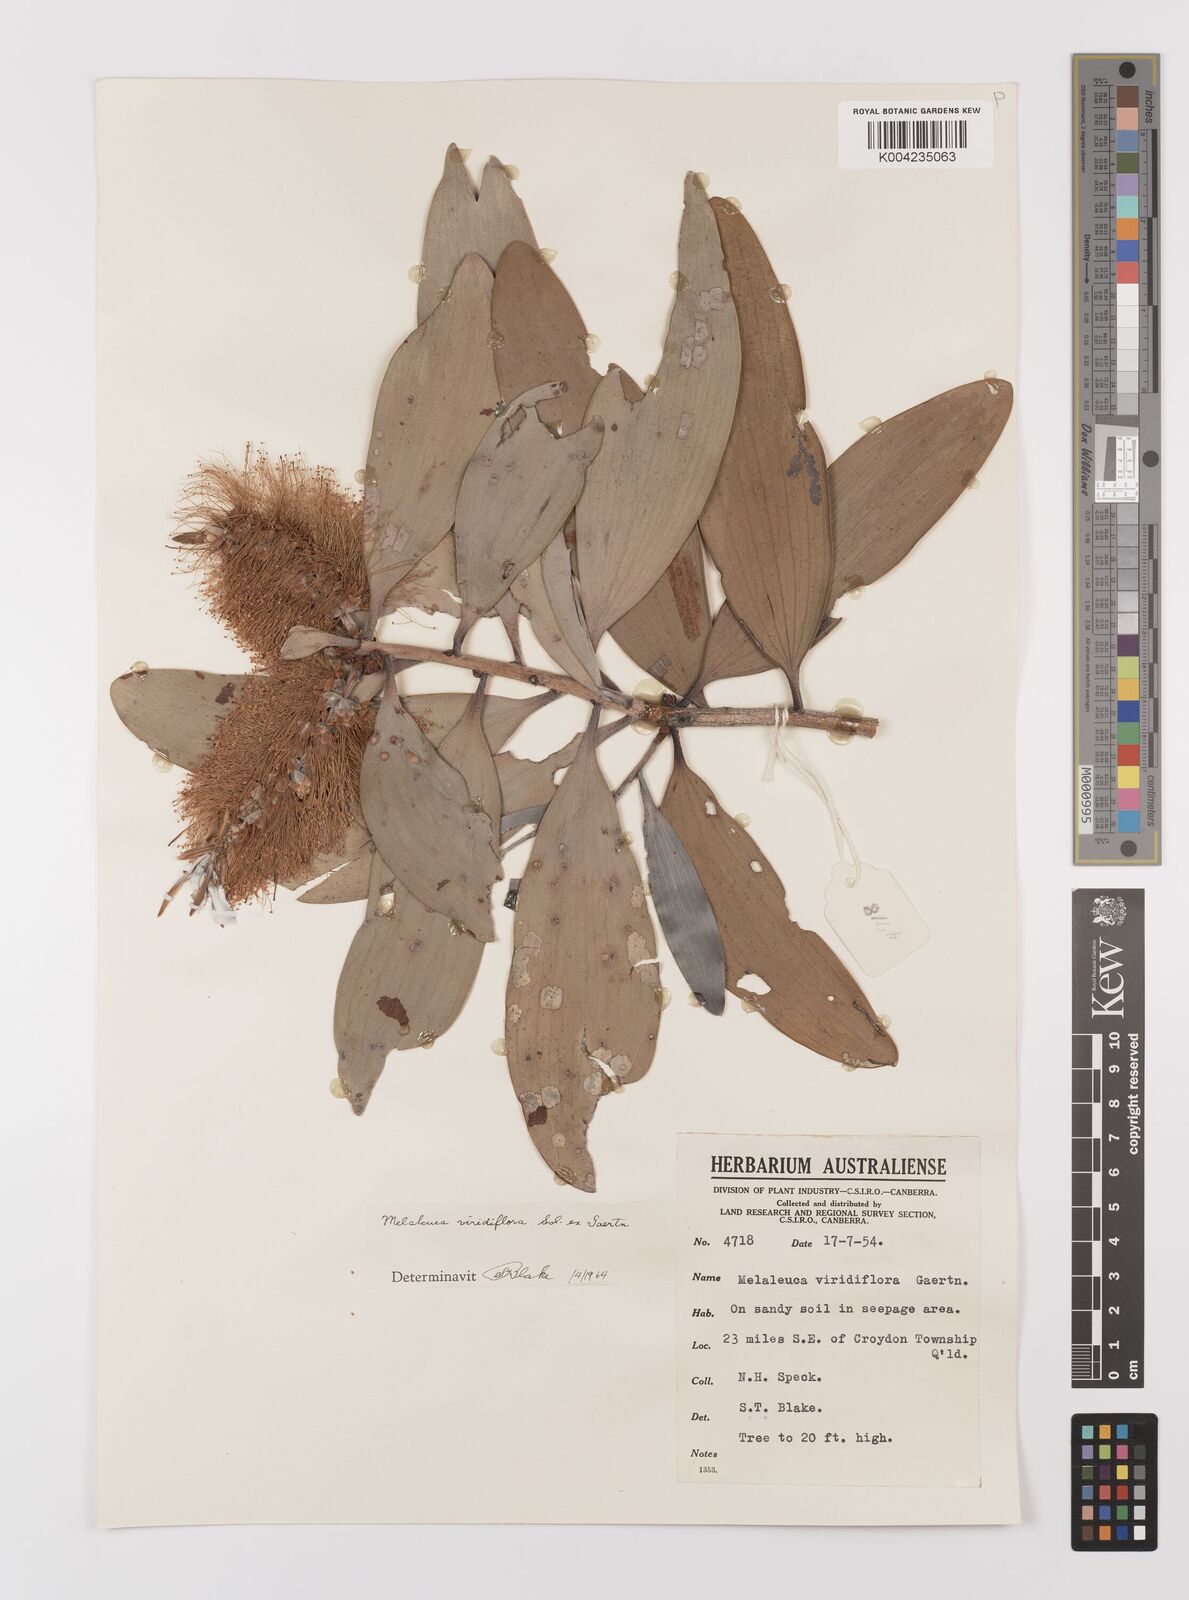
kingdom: Plantae
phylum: Tracheophyta
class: Magnoliopsida
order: Myrtales
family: Myrtaceae
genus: Melaleuca
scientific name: Melaleuca viridiflora
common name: Brown-leaved paperbark
